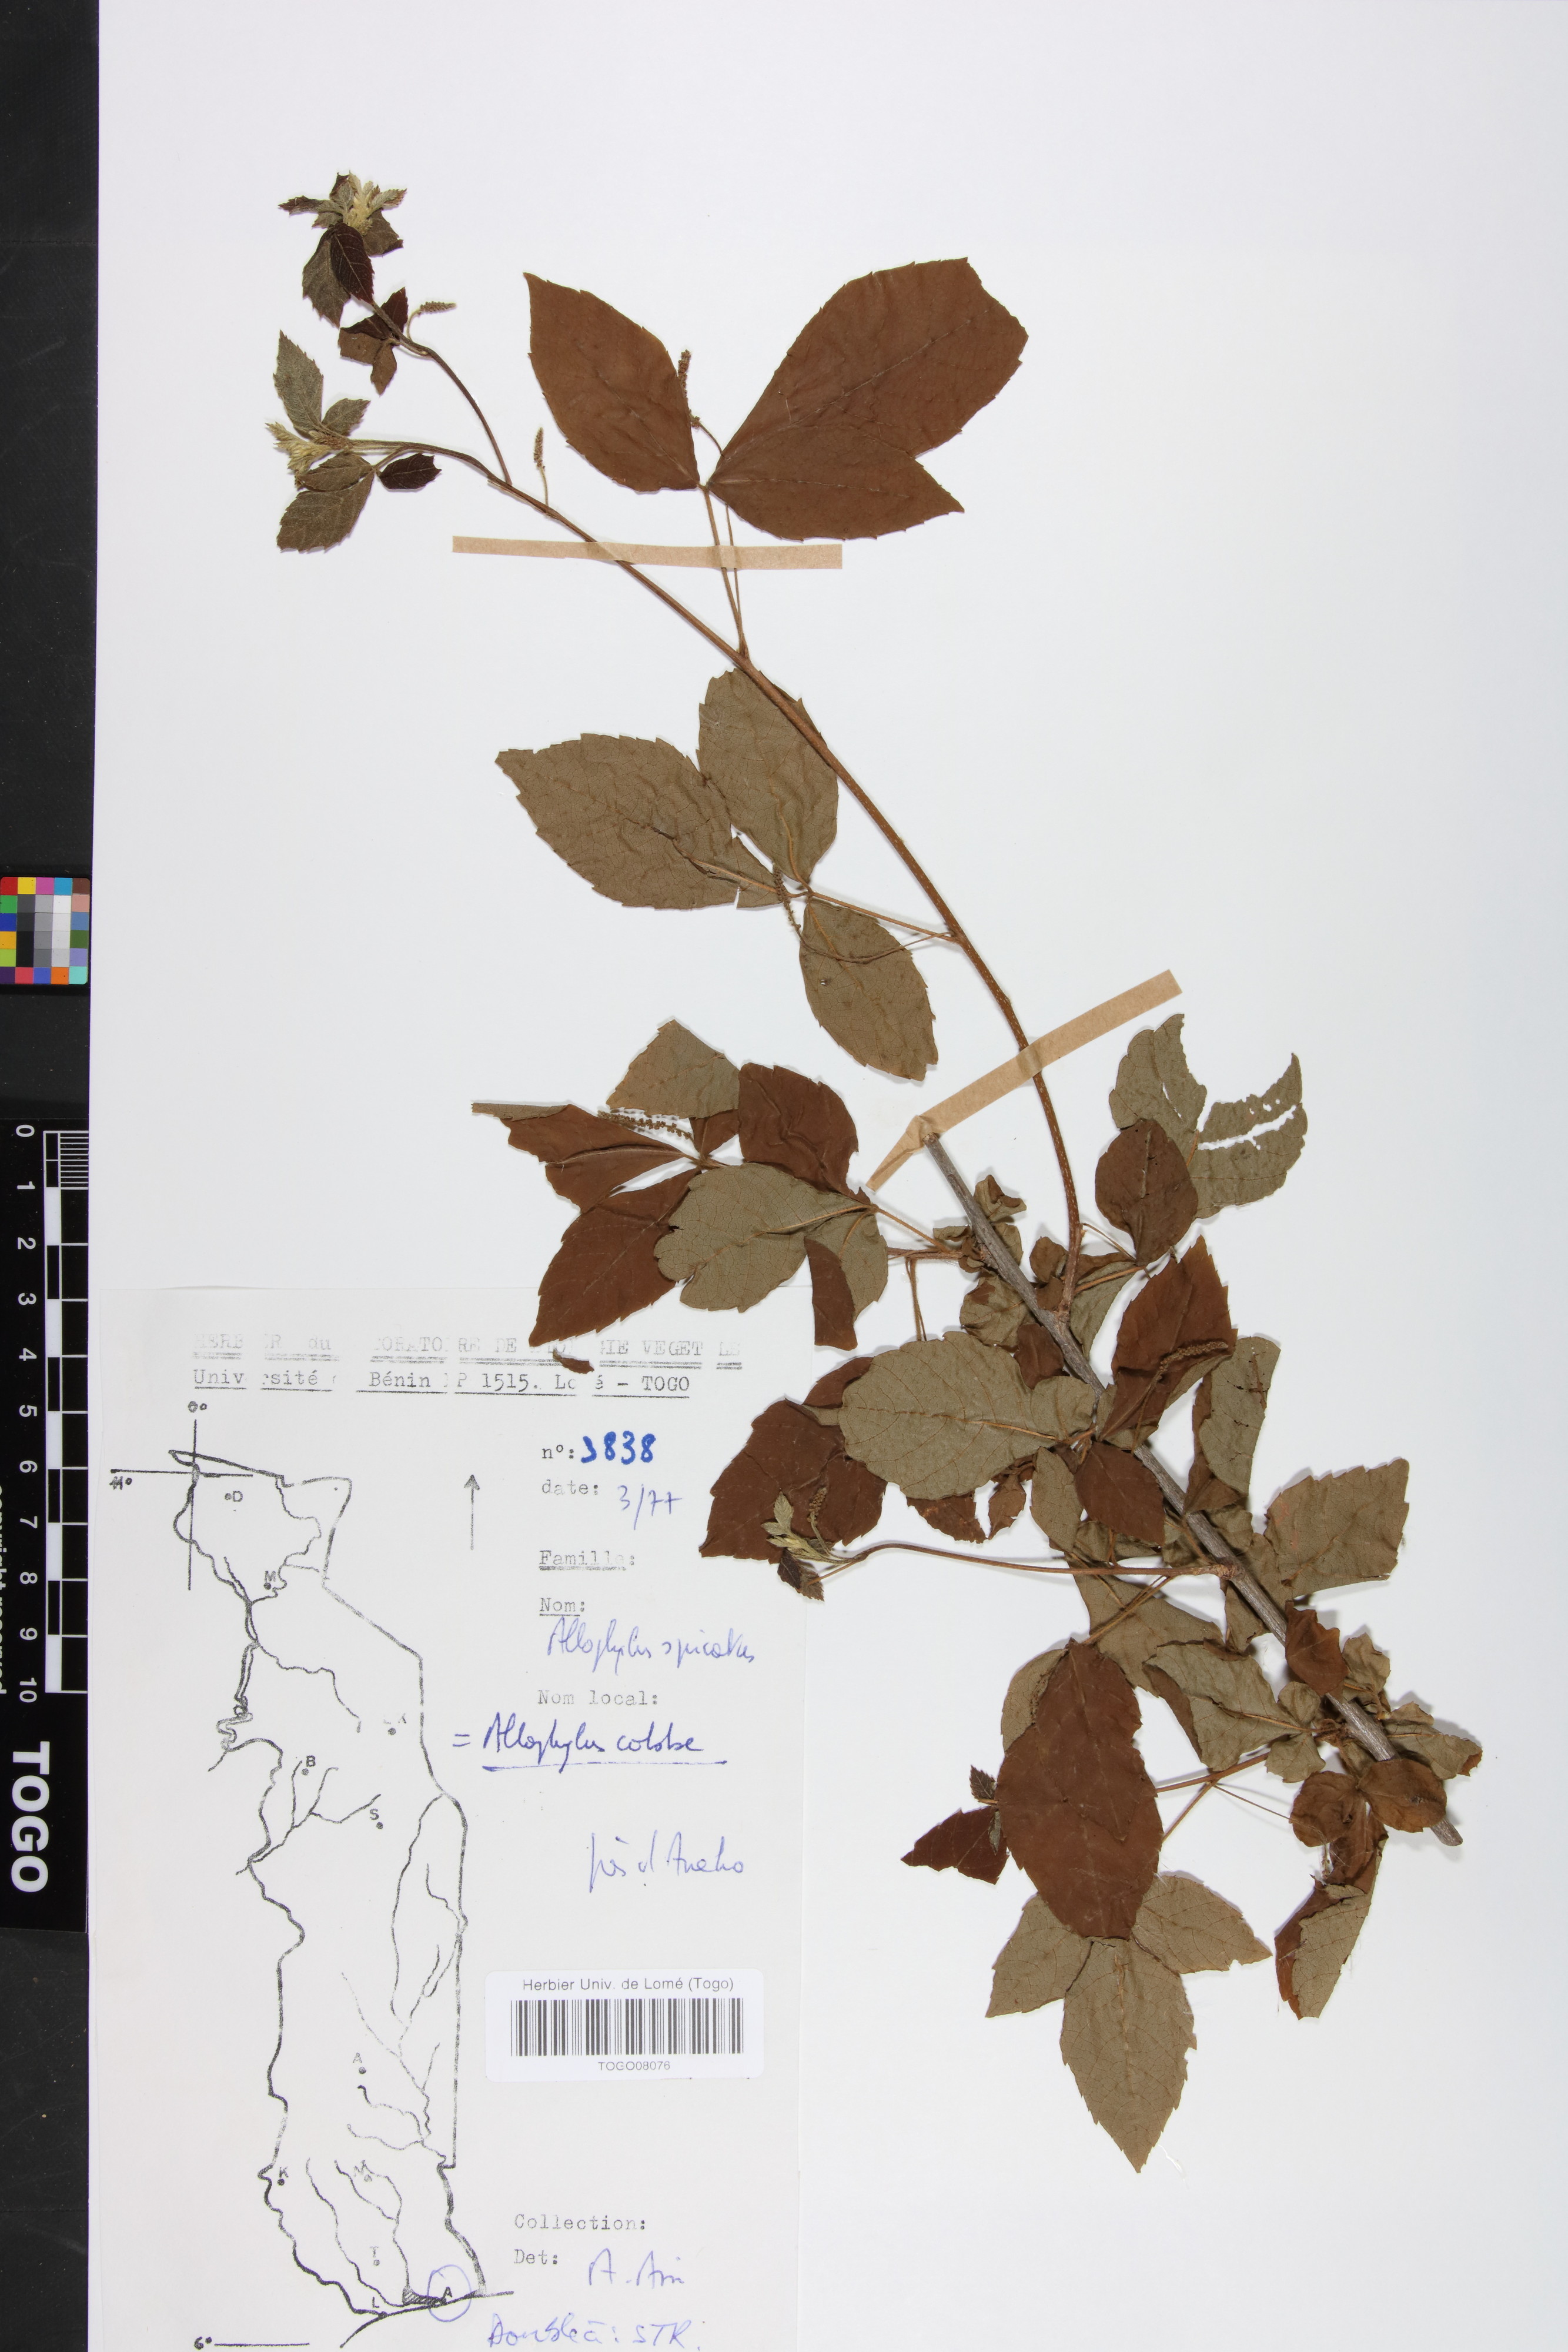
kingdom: Plantae
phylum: Tracheophyta
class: Magnoliopsida
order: Sapindales
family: Sapindaceae
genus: Allophylus
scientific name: Allophylus cobbe
